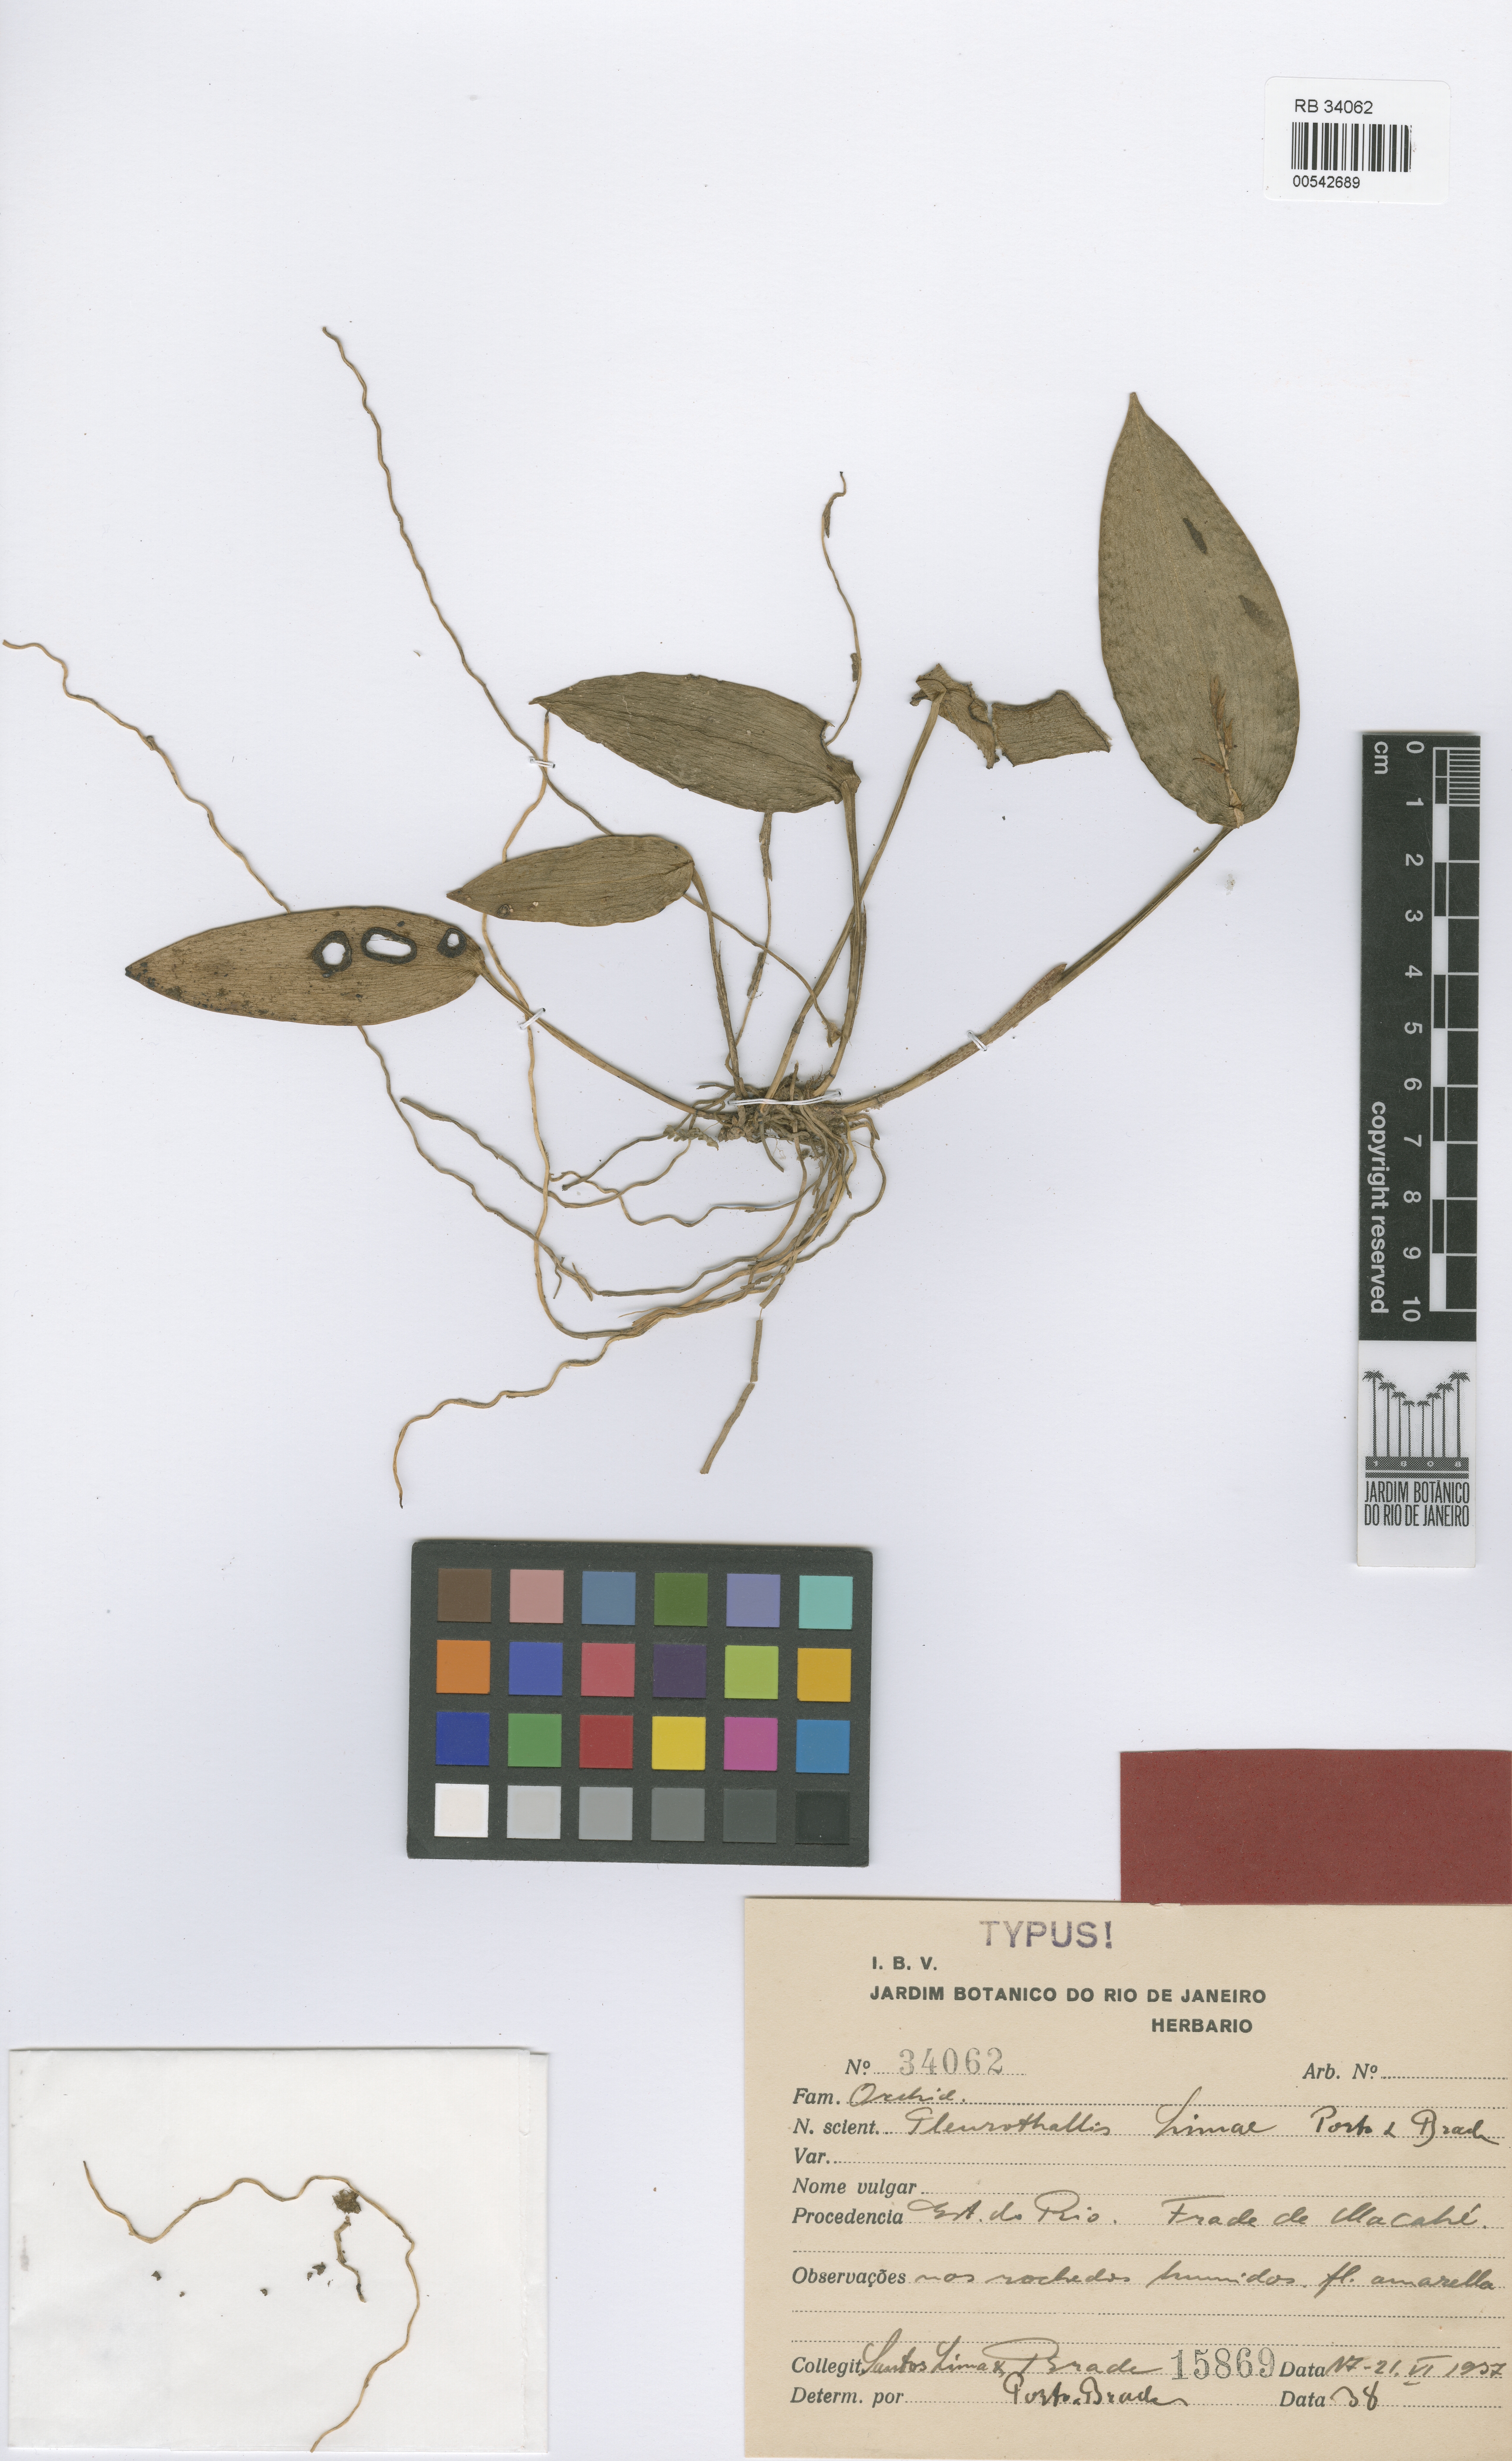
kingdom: Plantae
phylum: Tracheophyta
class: Liliopsida
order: Asparagales
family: Orchidaceae
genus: Acianthera
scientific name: Acianthera limae
